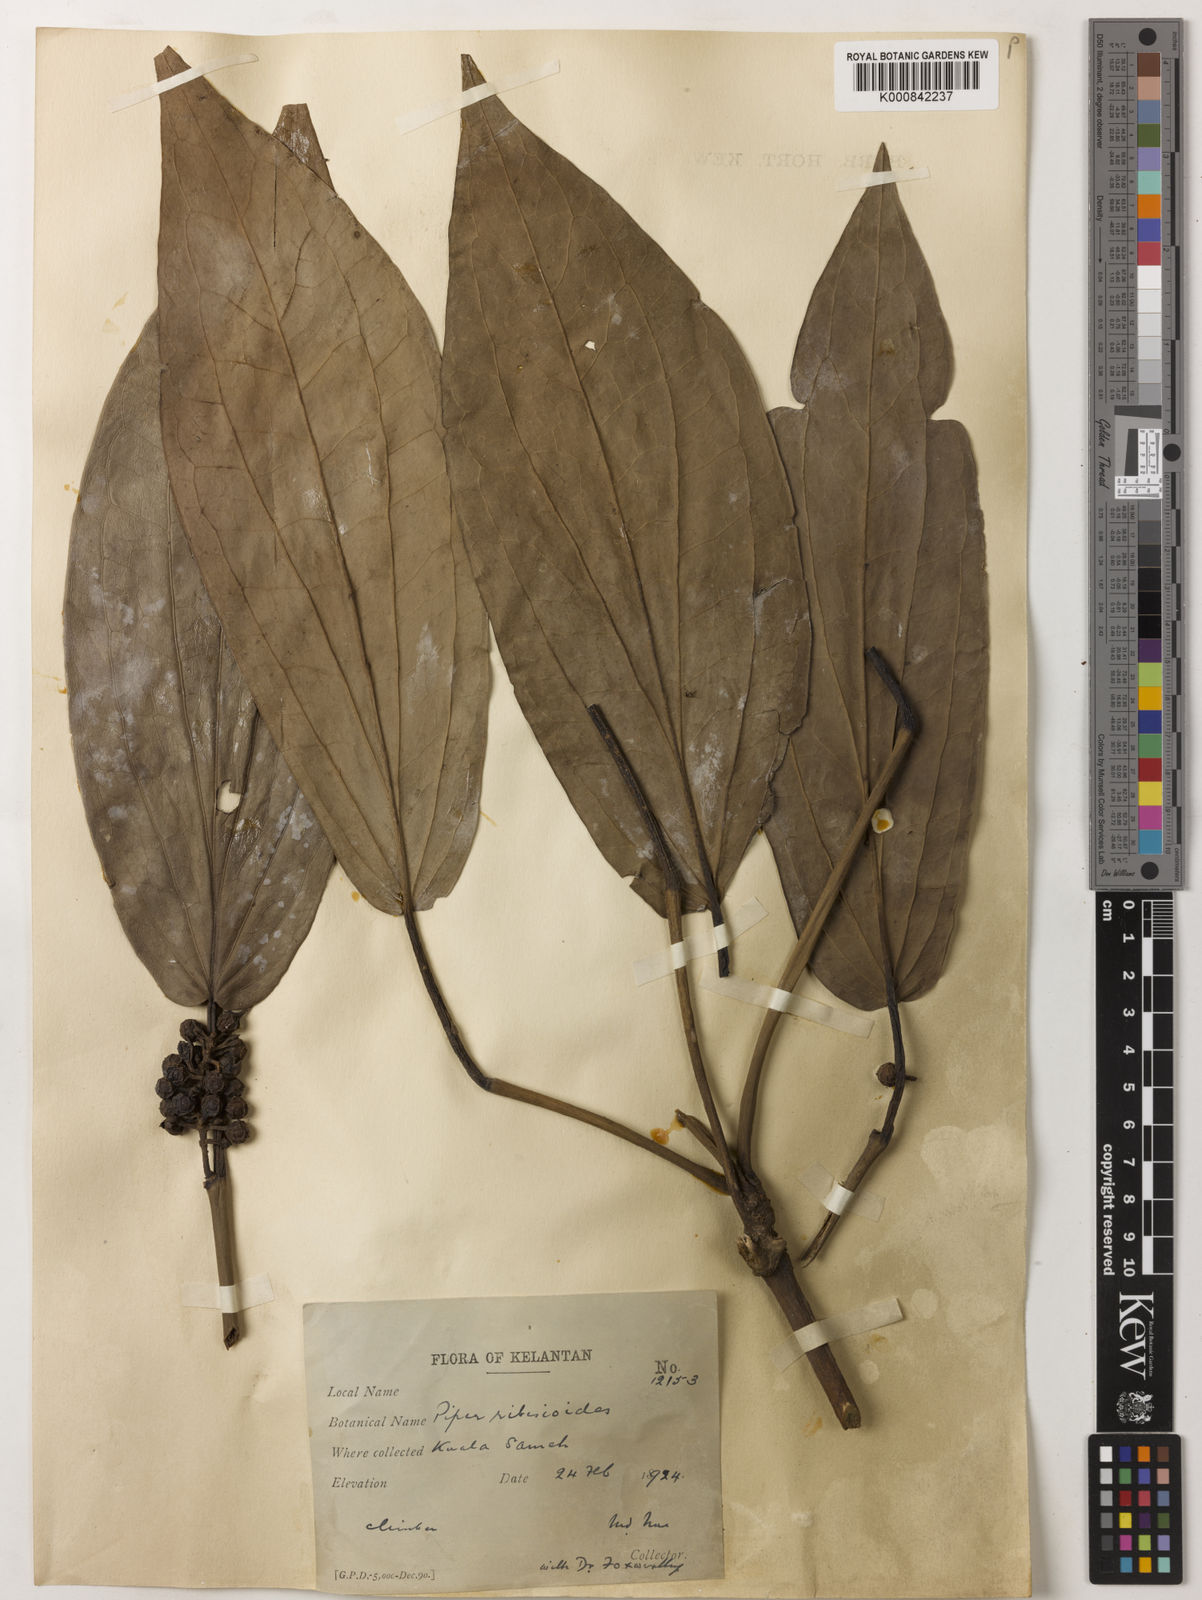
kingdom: Plantae
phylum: Tracheophyta
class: Magnoliopsida
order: Piperales
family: Piperaceae
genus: Piper
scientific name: Piper ribesioides
